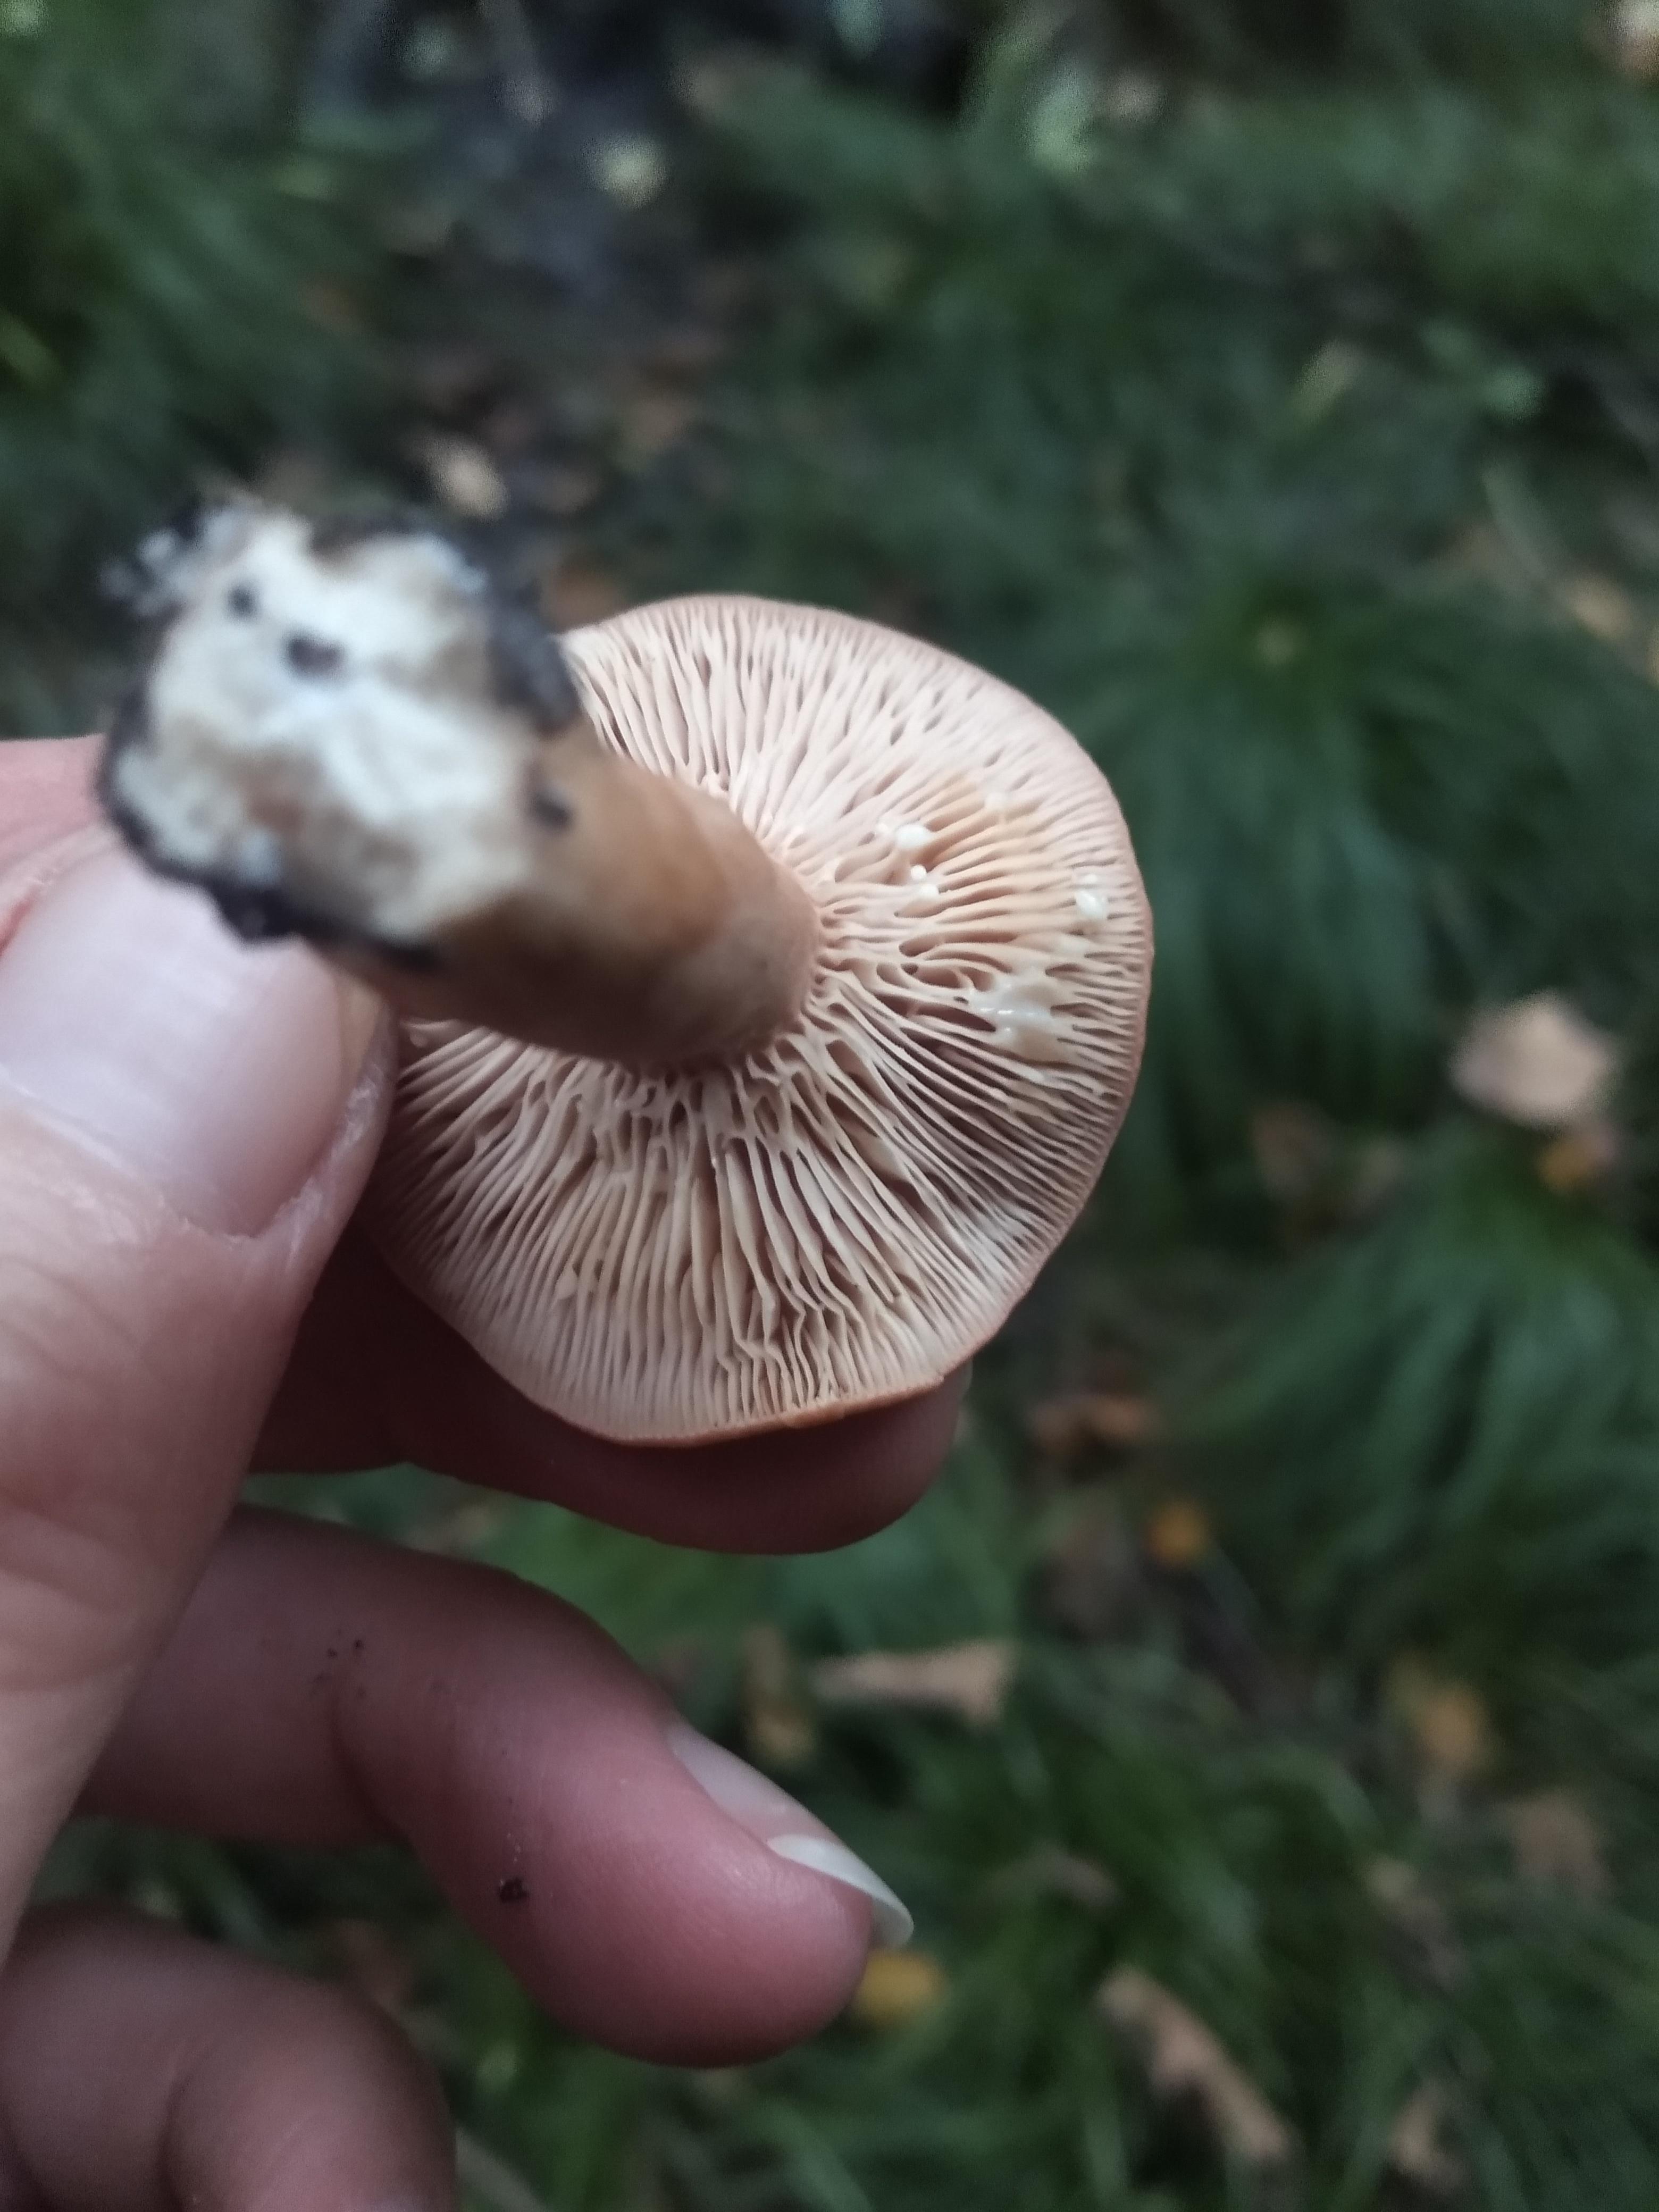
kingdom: Fungi
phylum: Basidiomycota
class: Agaricomycetes
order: Russulales
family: Russulaceae
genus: Lactarius
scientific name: Lactarius
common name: mælkehat
